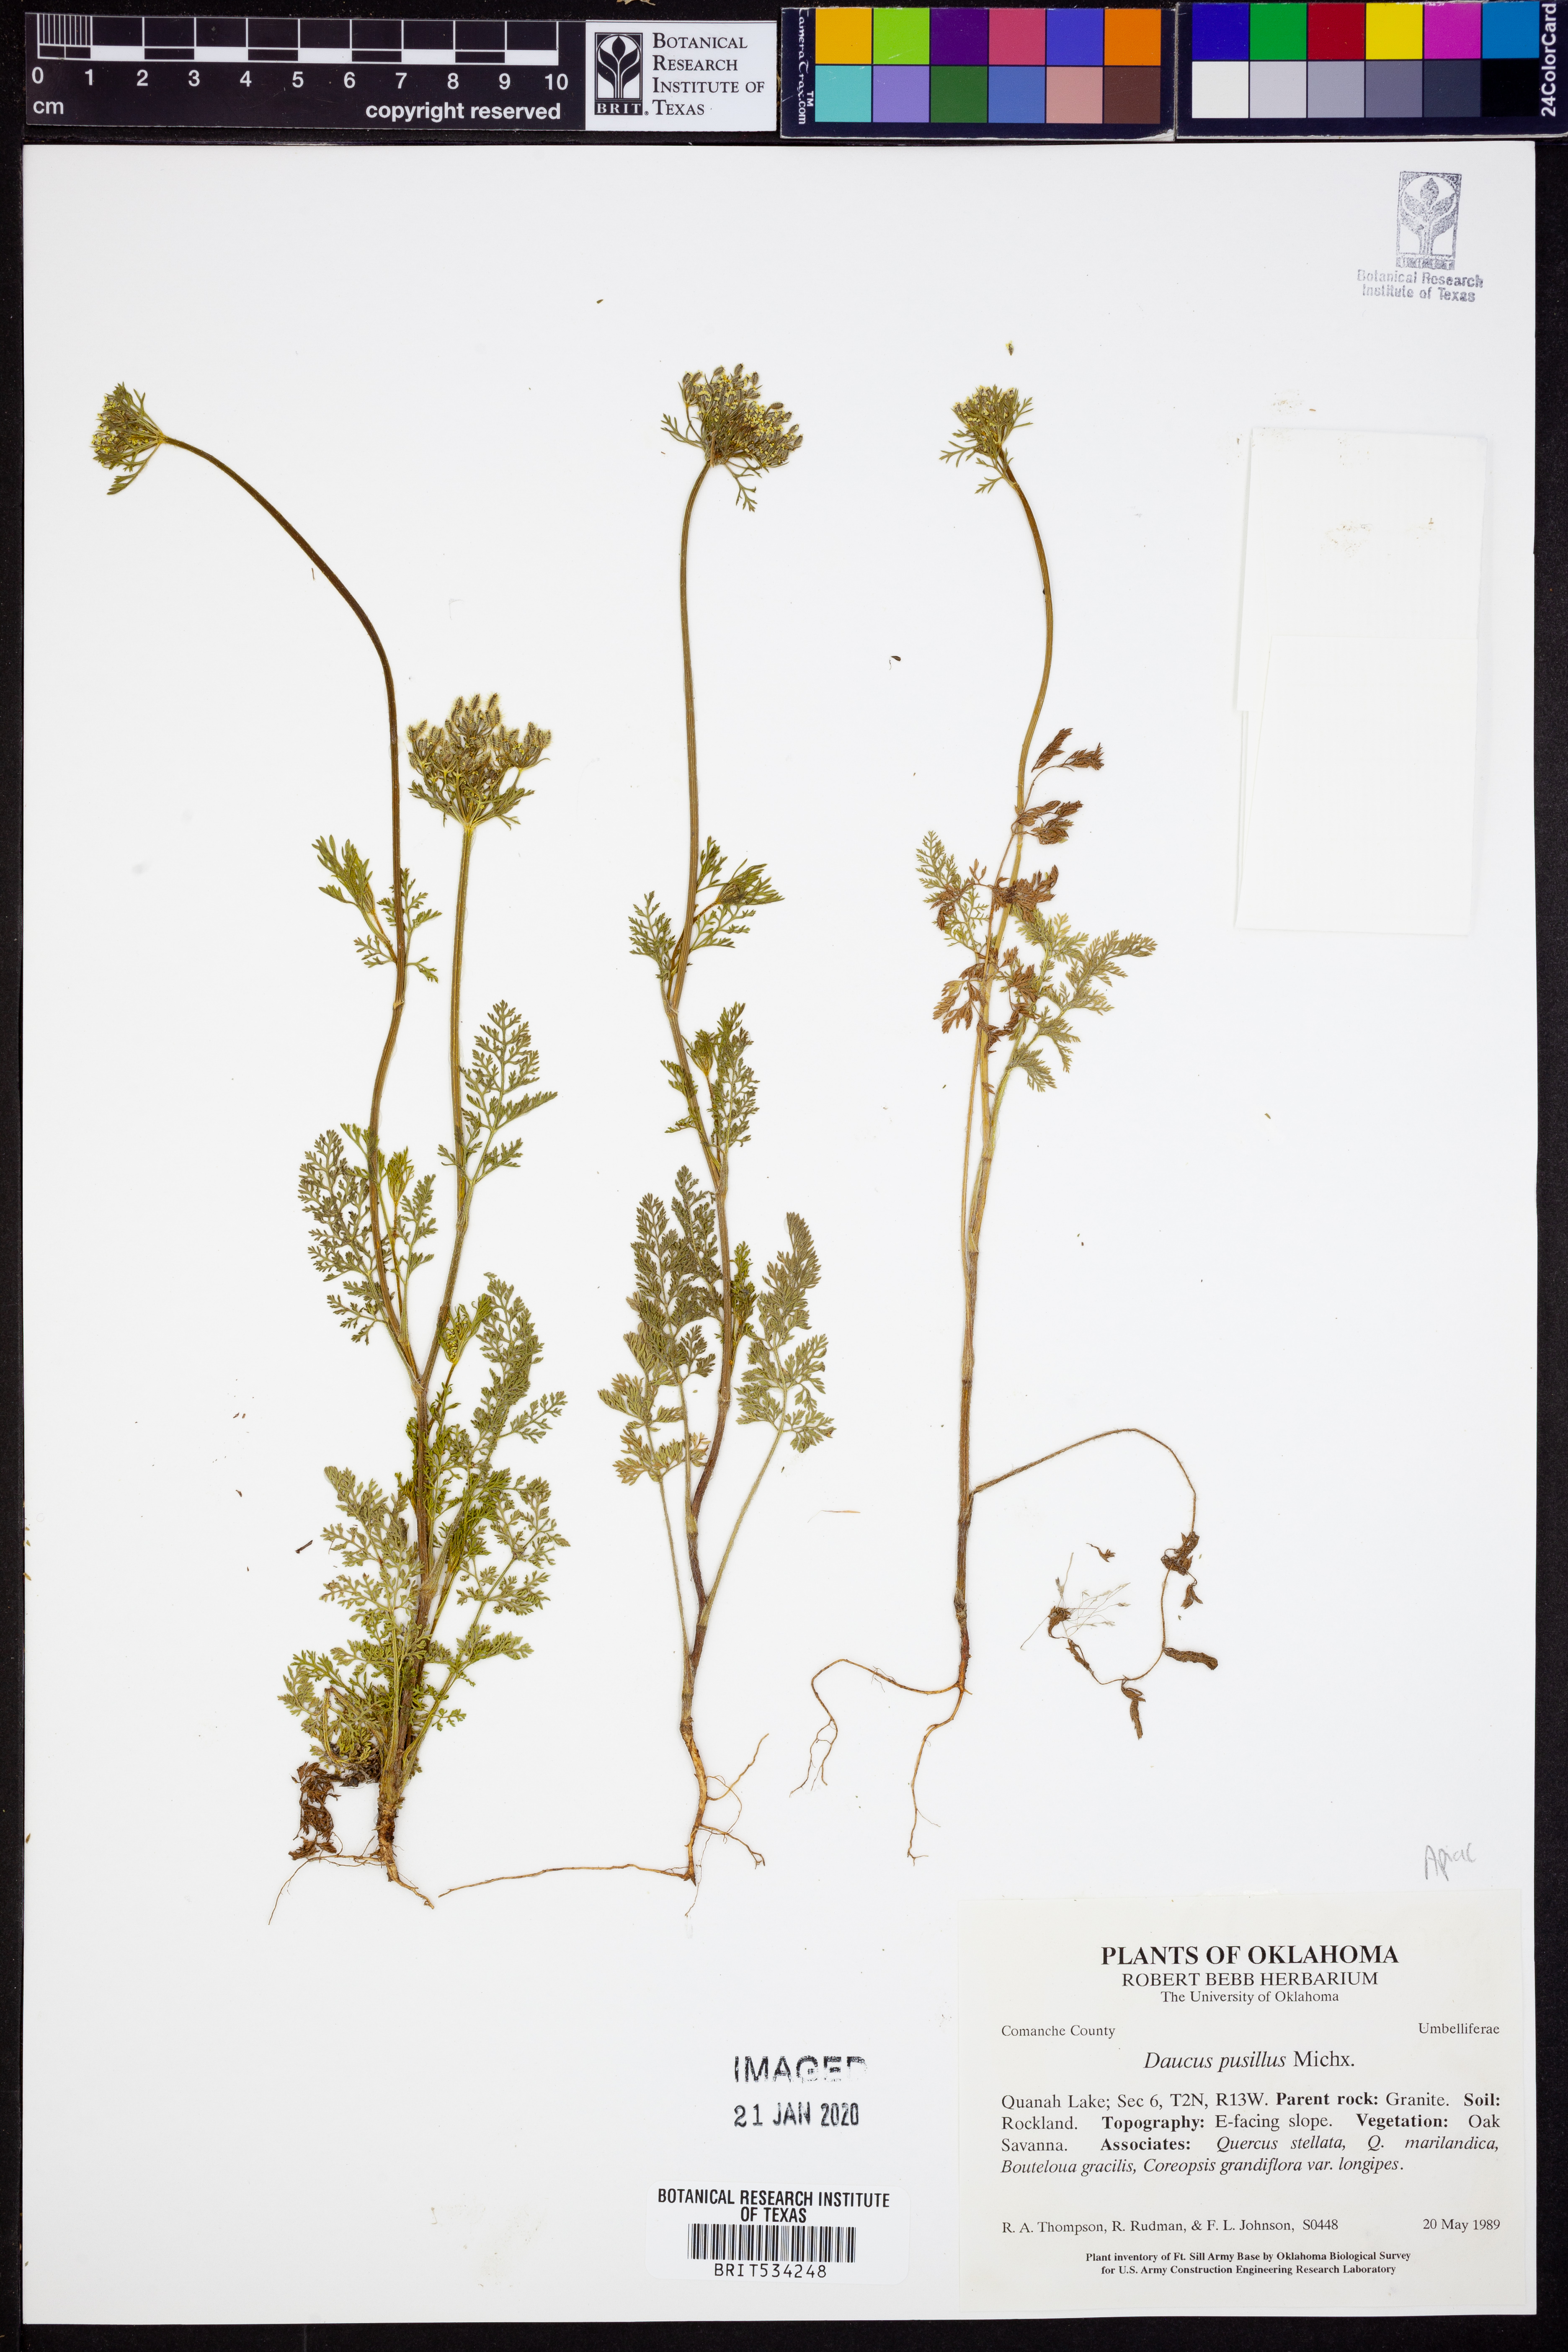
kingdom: Plantae
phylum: Tracheophyta
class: Magnoliopsida
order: Apiales
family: Apiaceae
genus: Daucus
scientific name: Daucus pusillus
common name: Southwest wild carrot
